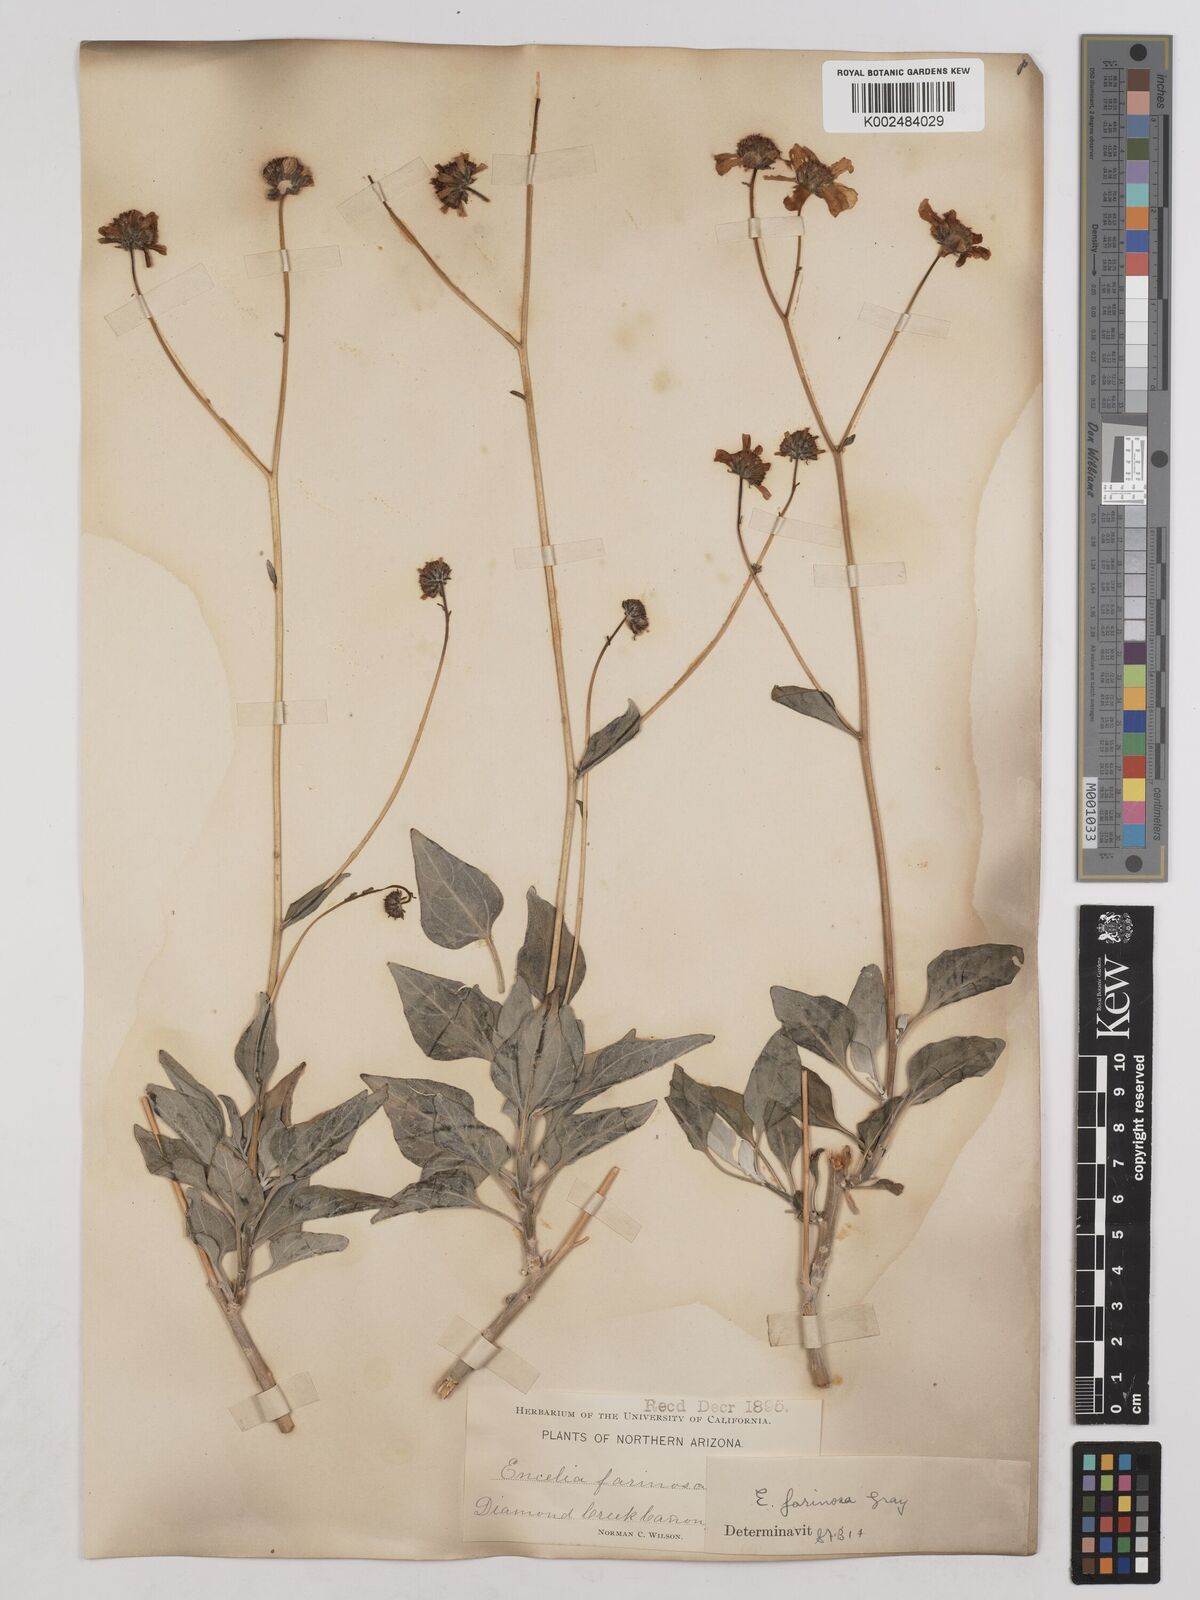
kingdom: Plantae
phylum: Tracheophyta
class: Magnoliopsida
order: Asterales
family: Asteraceae
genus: Encelia
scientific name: Encelia farinosa
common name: Brittlebush
